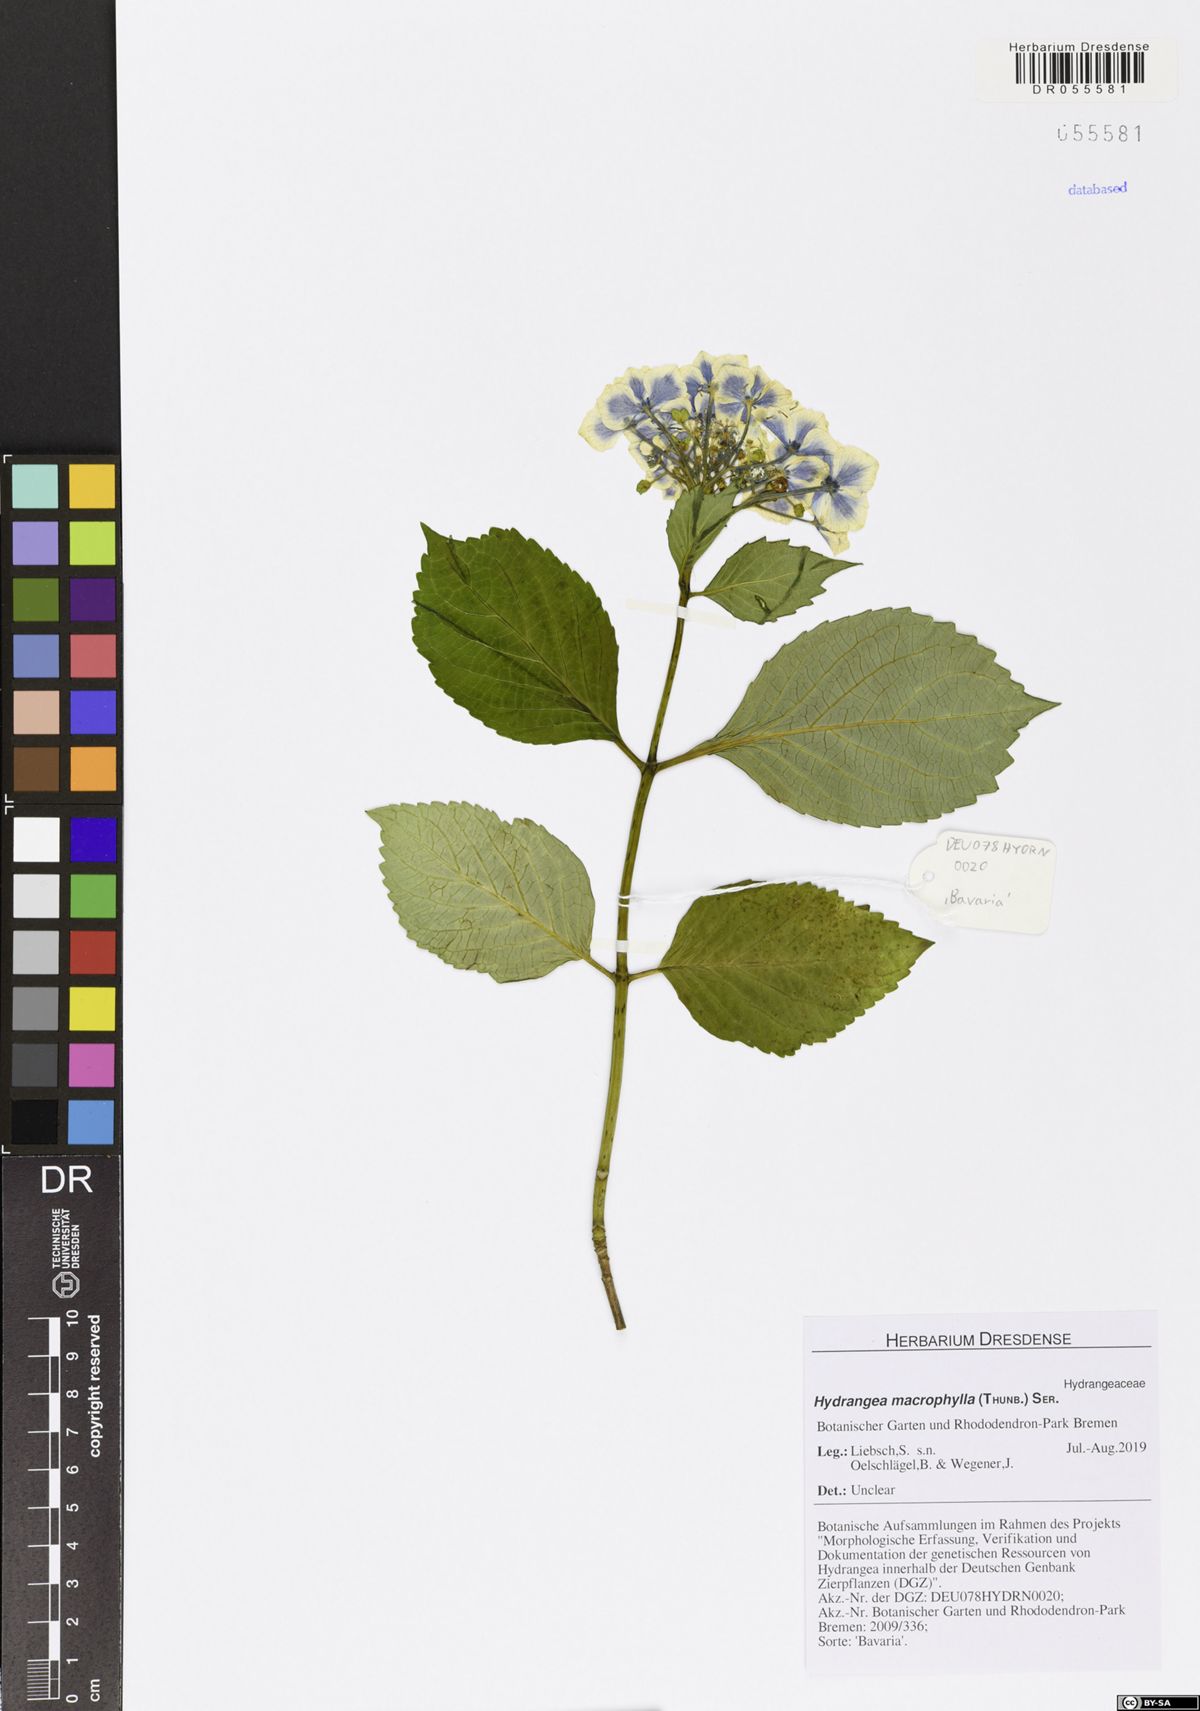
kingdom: Plantae
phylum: Tracheophyta
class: Magnoliopsida
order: Cornales
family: Hydrangeaceae
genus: Hydrangea
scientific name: Hydrangea macrophylla
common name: Hydrangea
